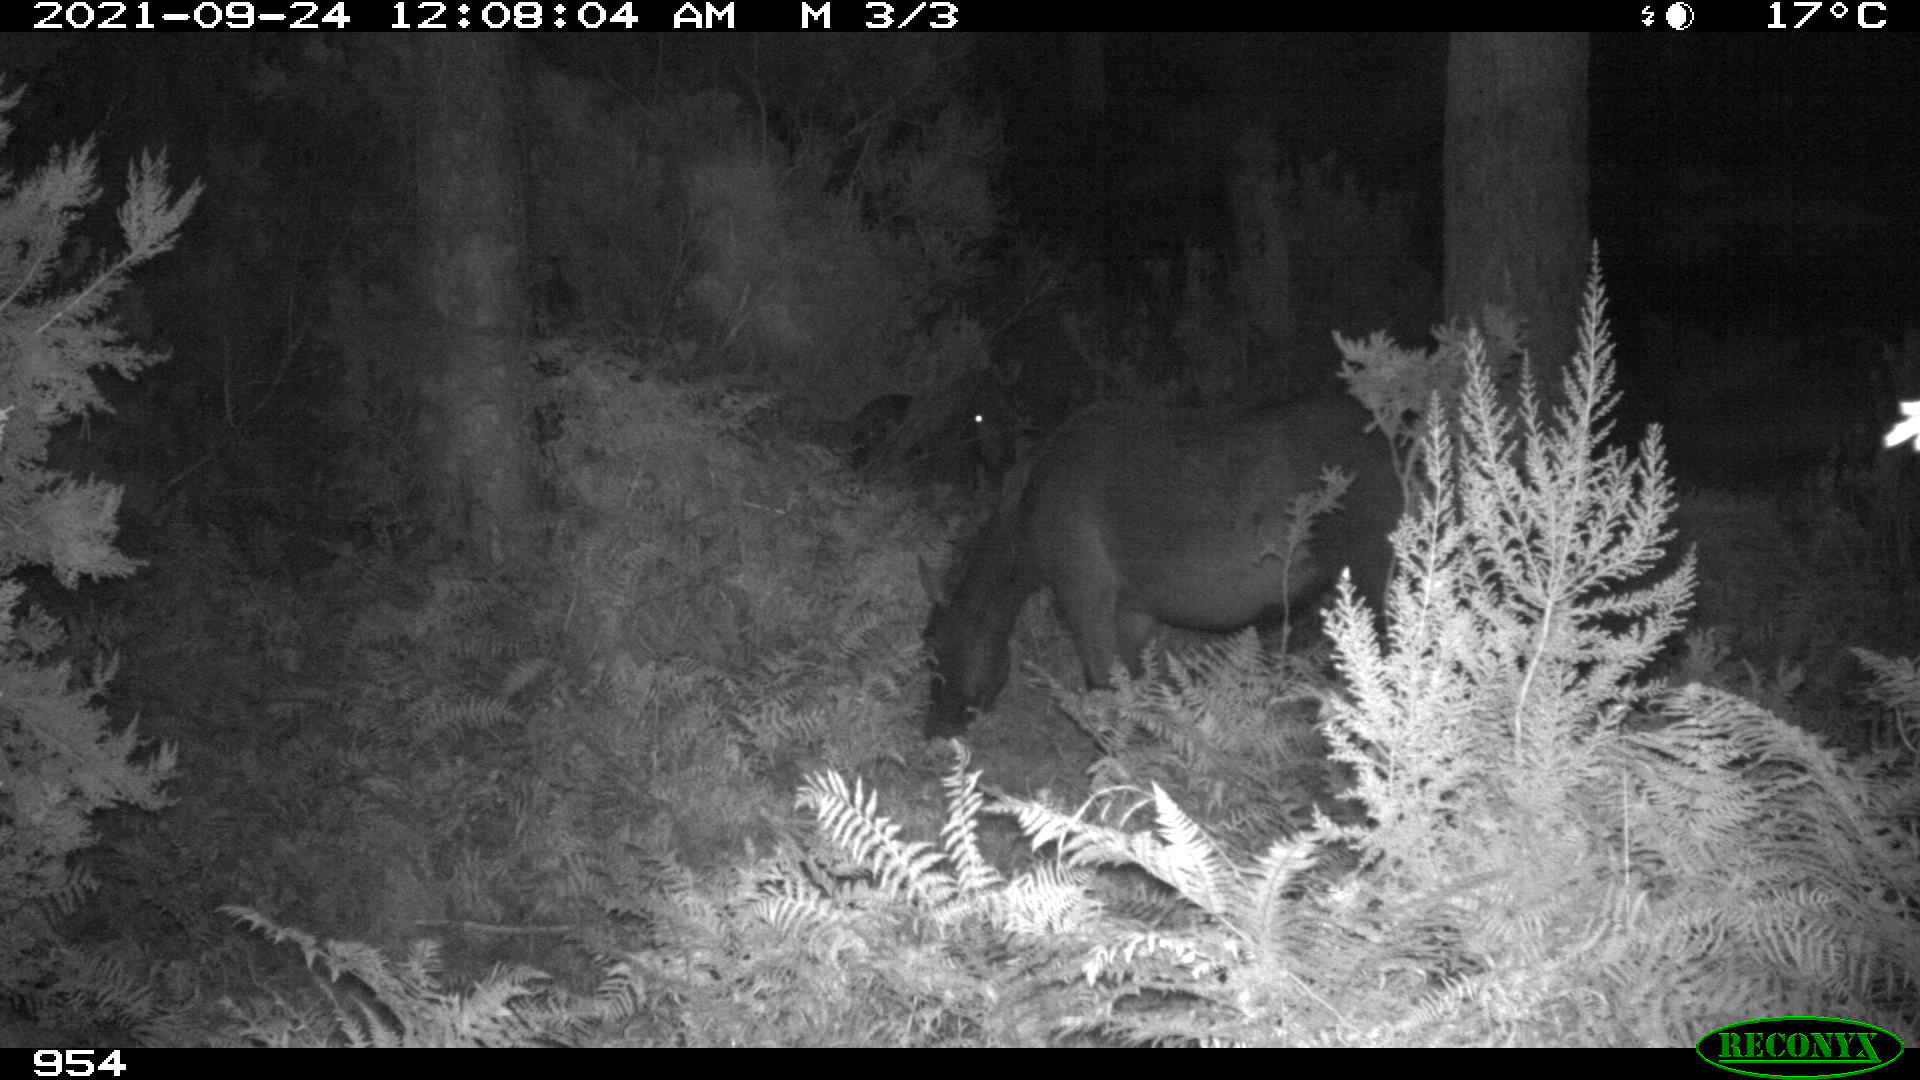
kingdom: Animalia
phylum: Chordata
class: Mammalia
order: Perissodactyla
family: Equidae
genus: Equus
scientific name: Equus caballus
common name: Horse
